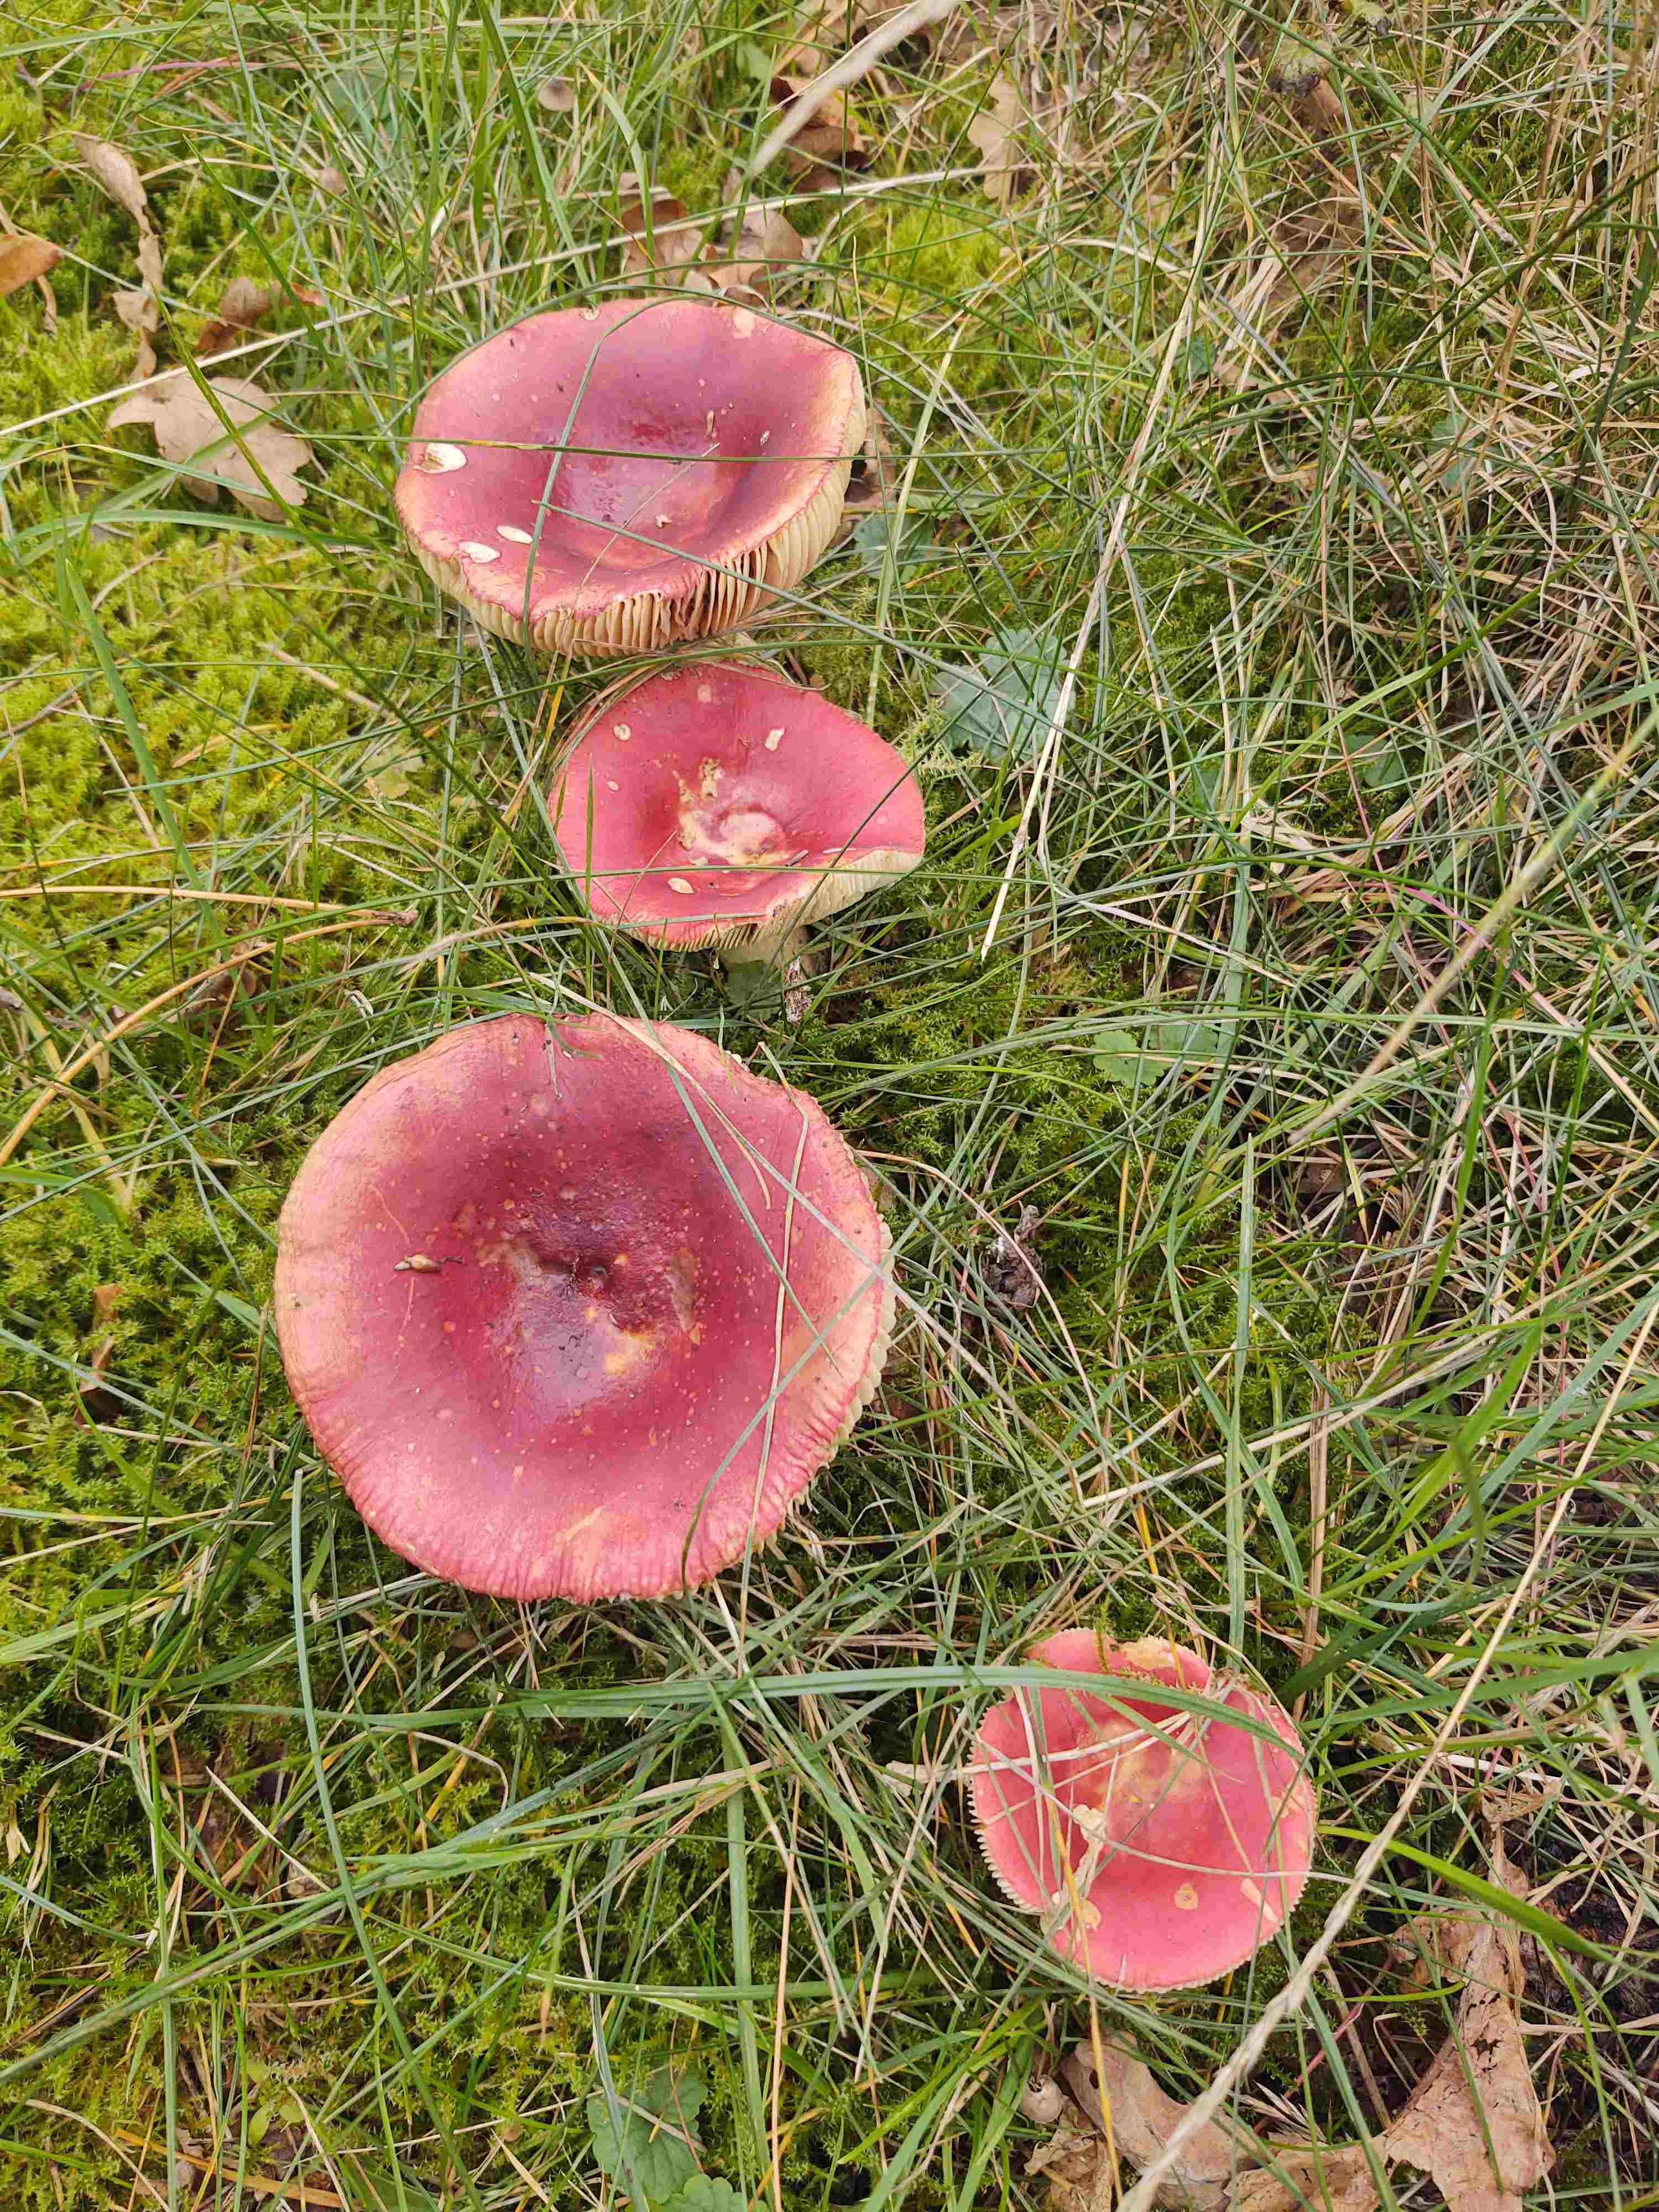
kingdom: Fungi
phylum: Basidiomycota
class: Agaricomycetes
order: Russulales
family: Russulaceae
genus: Russula
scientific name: Russula
